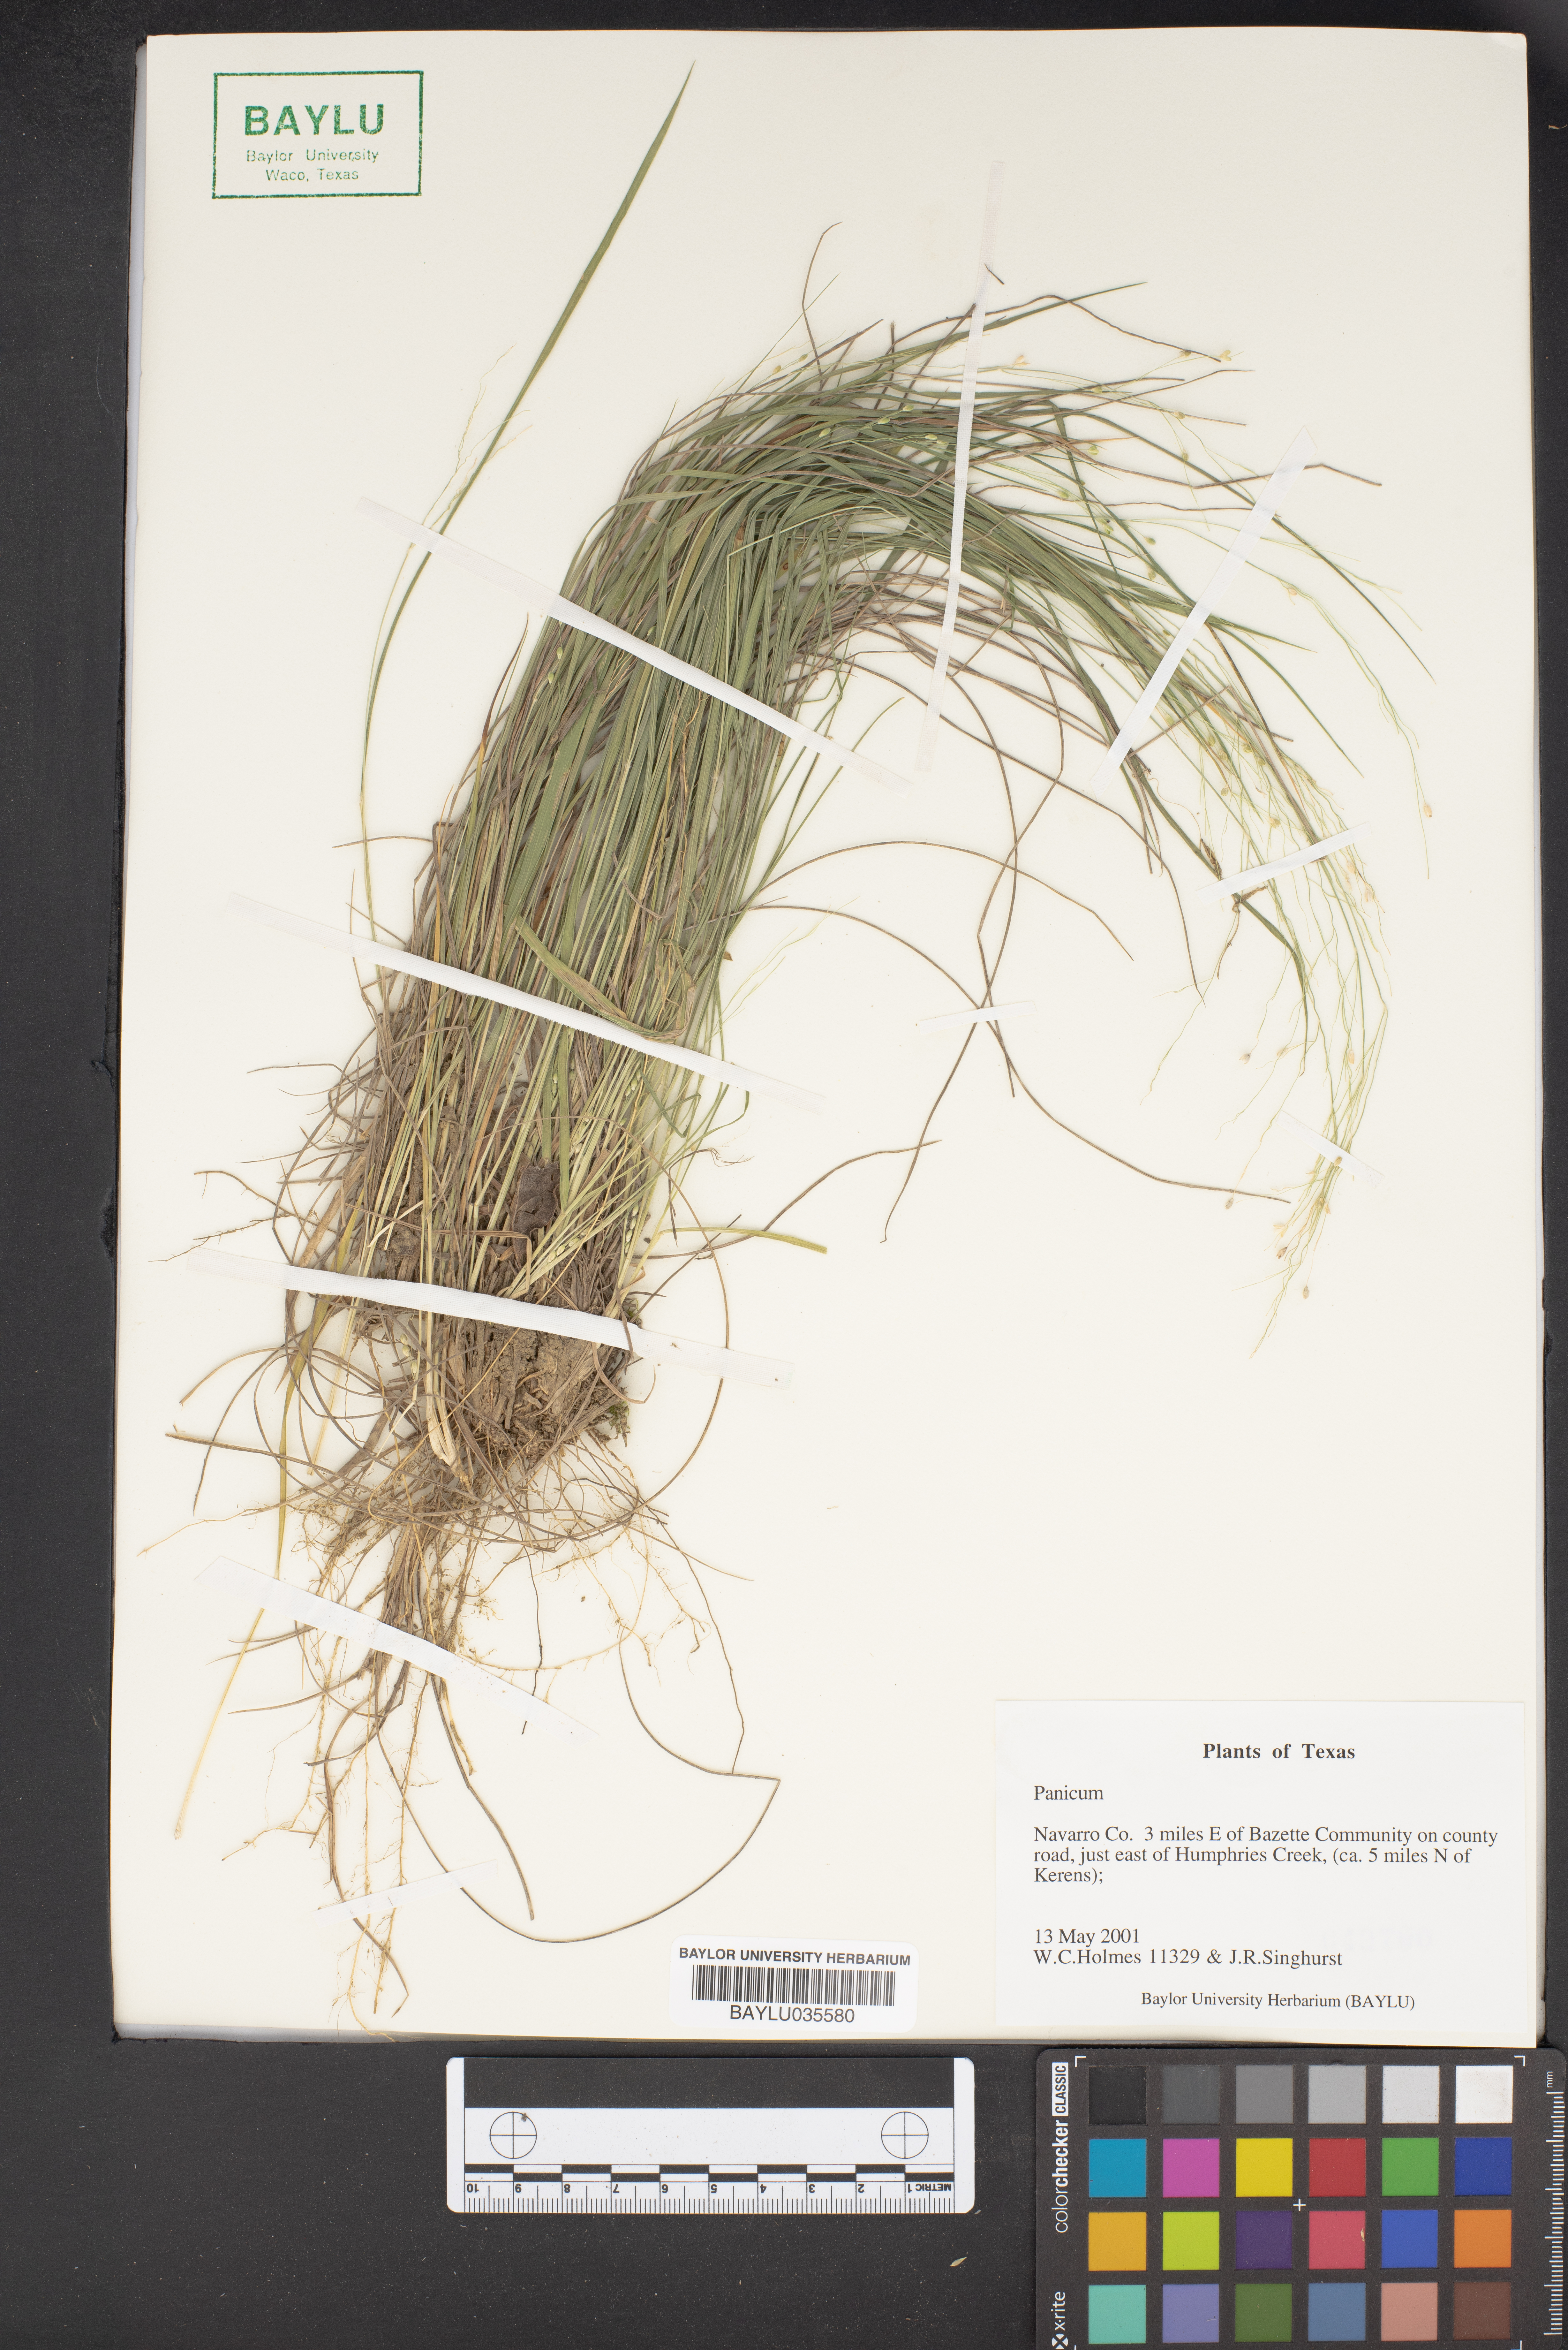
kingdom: Plantae
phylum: Tracheophyta
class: Liliopsida
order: Poales
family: Poaceae
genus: Panicum
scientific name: Panicum
